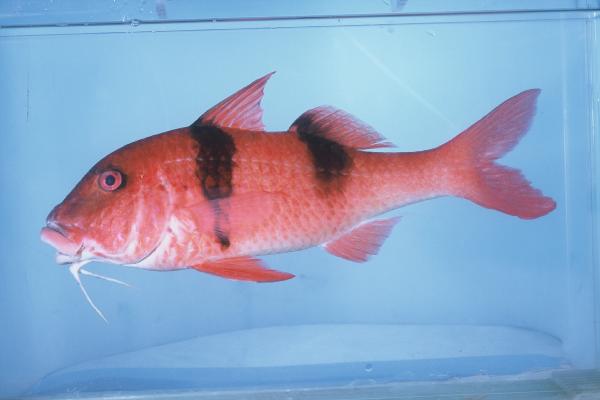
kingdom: Animalia
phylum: Chordata
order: Perciformes
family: Mullidae
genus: Parupeneus
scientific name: Parupeneus trifasciatus
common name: Doublebar goatfish
